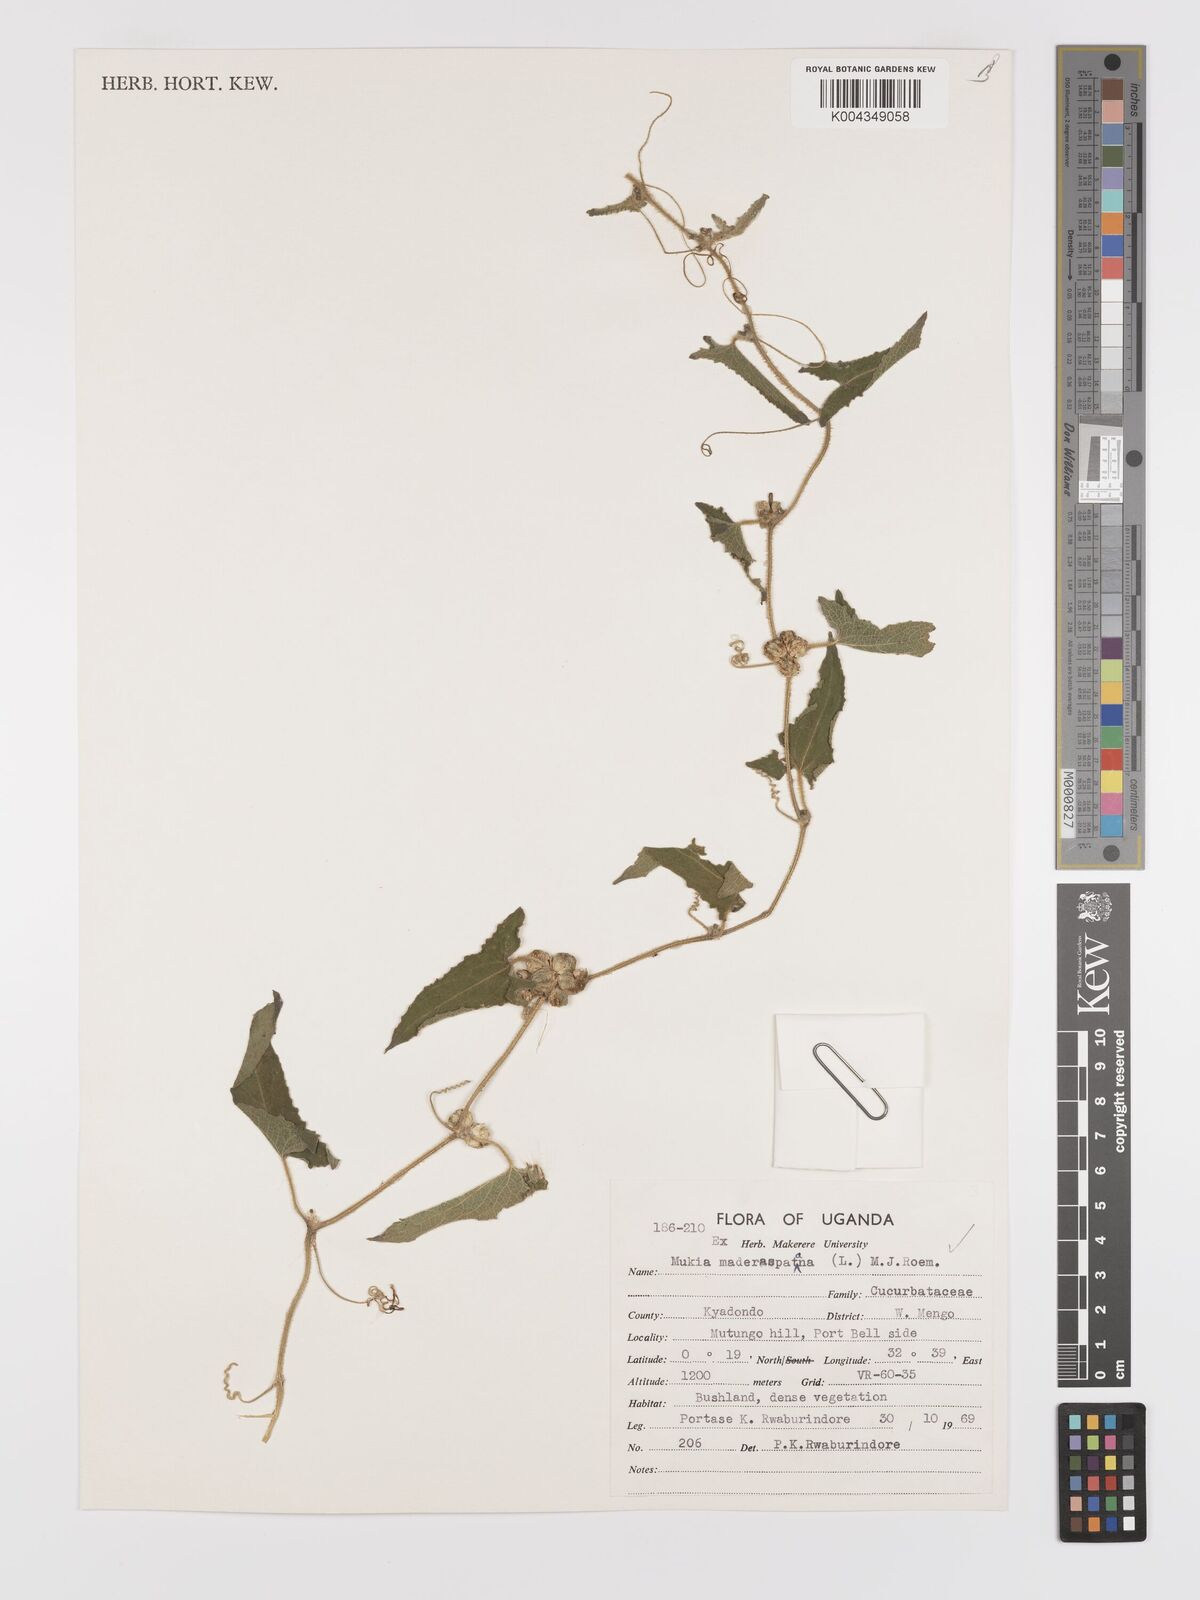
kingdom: Plantae
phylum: Tracheophyta
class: Magnoliopsida
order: Cucurbitales
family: Cucurbitaceae
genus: Cucumis
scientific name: Cucumis maderaspatanus
